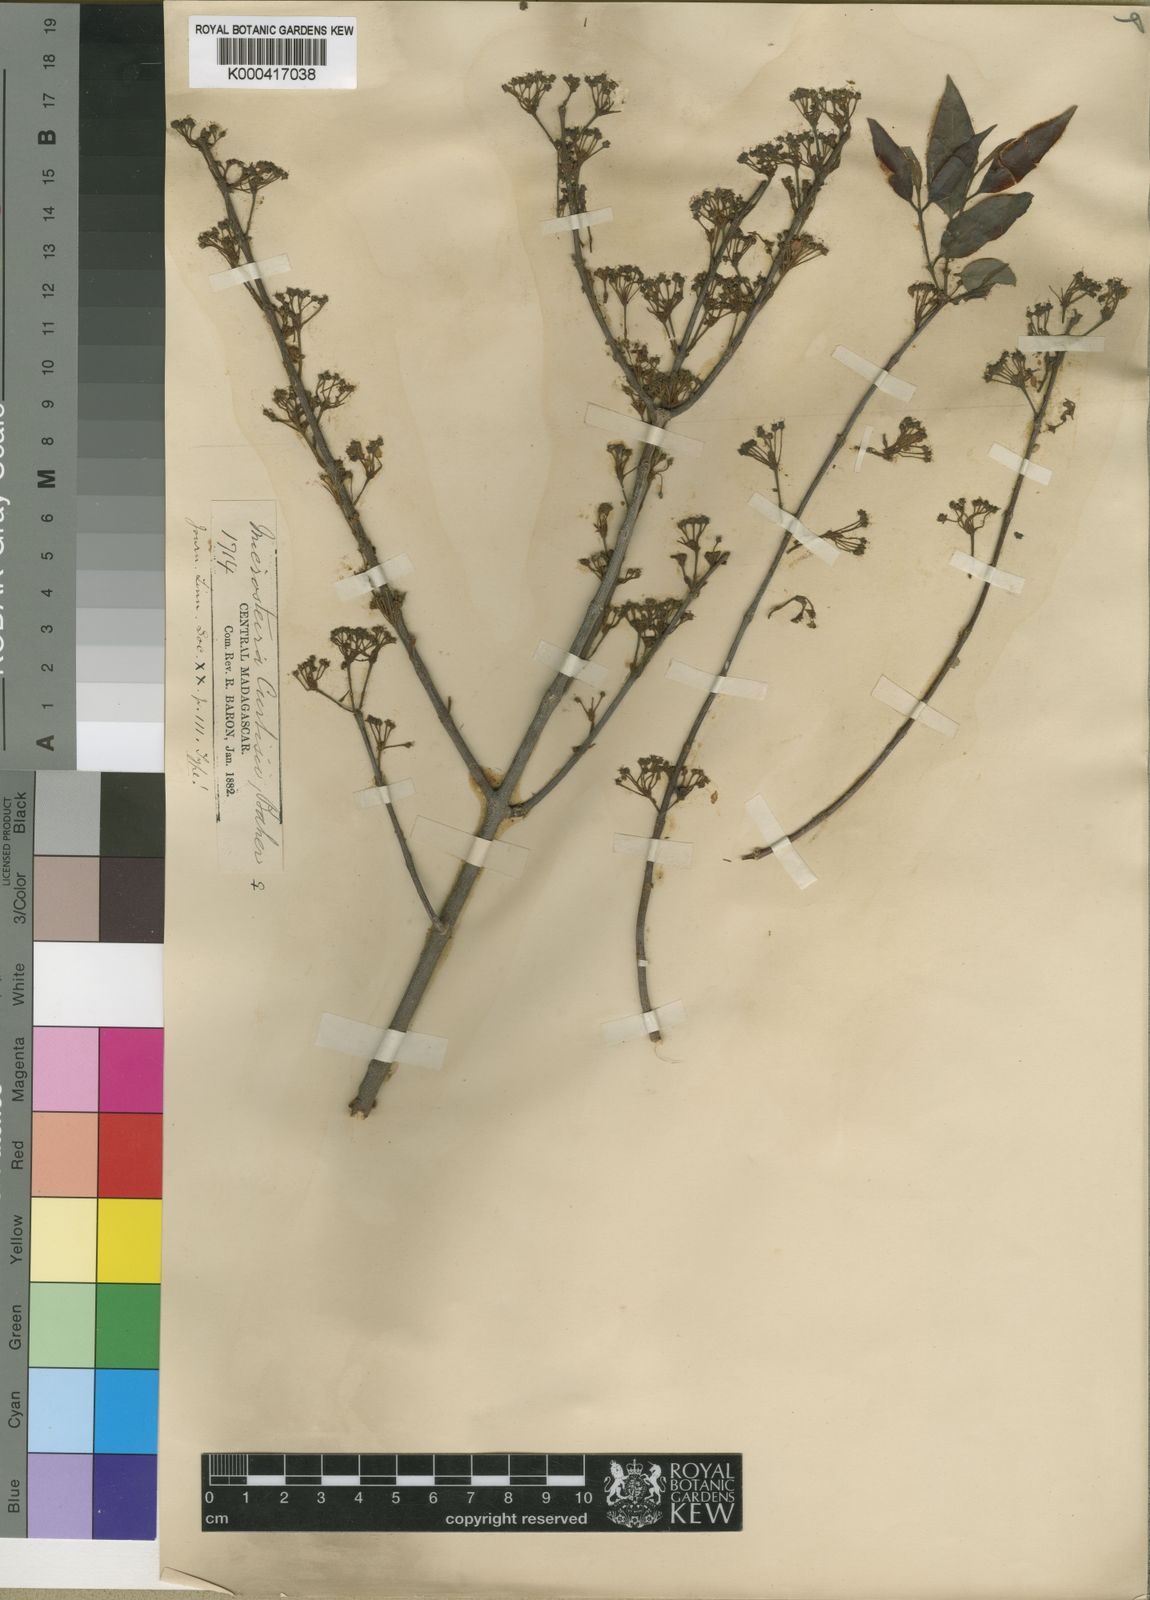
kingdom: Plantae
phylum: Tracheophyta
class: Magnoliopsida
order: Malpighiales
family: Malpighiaceae
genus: Microsteira
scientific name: Microsteira curtisii
